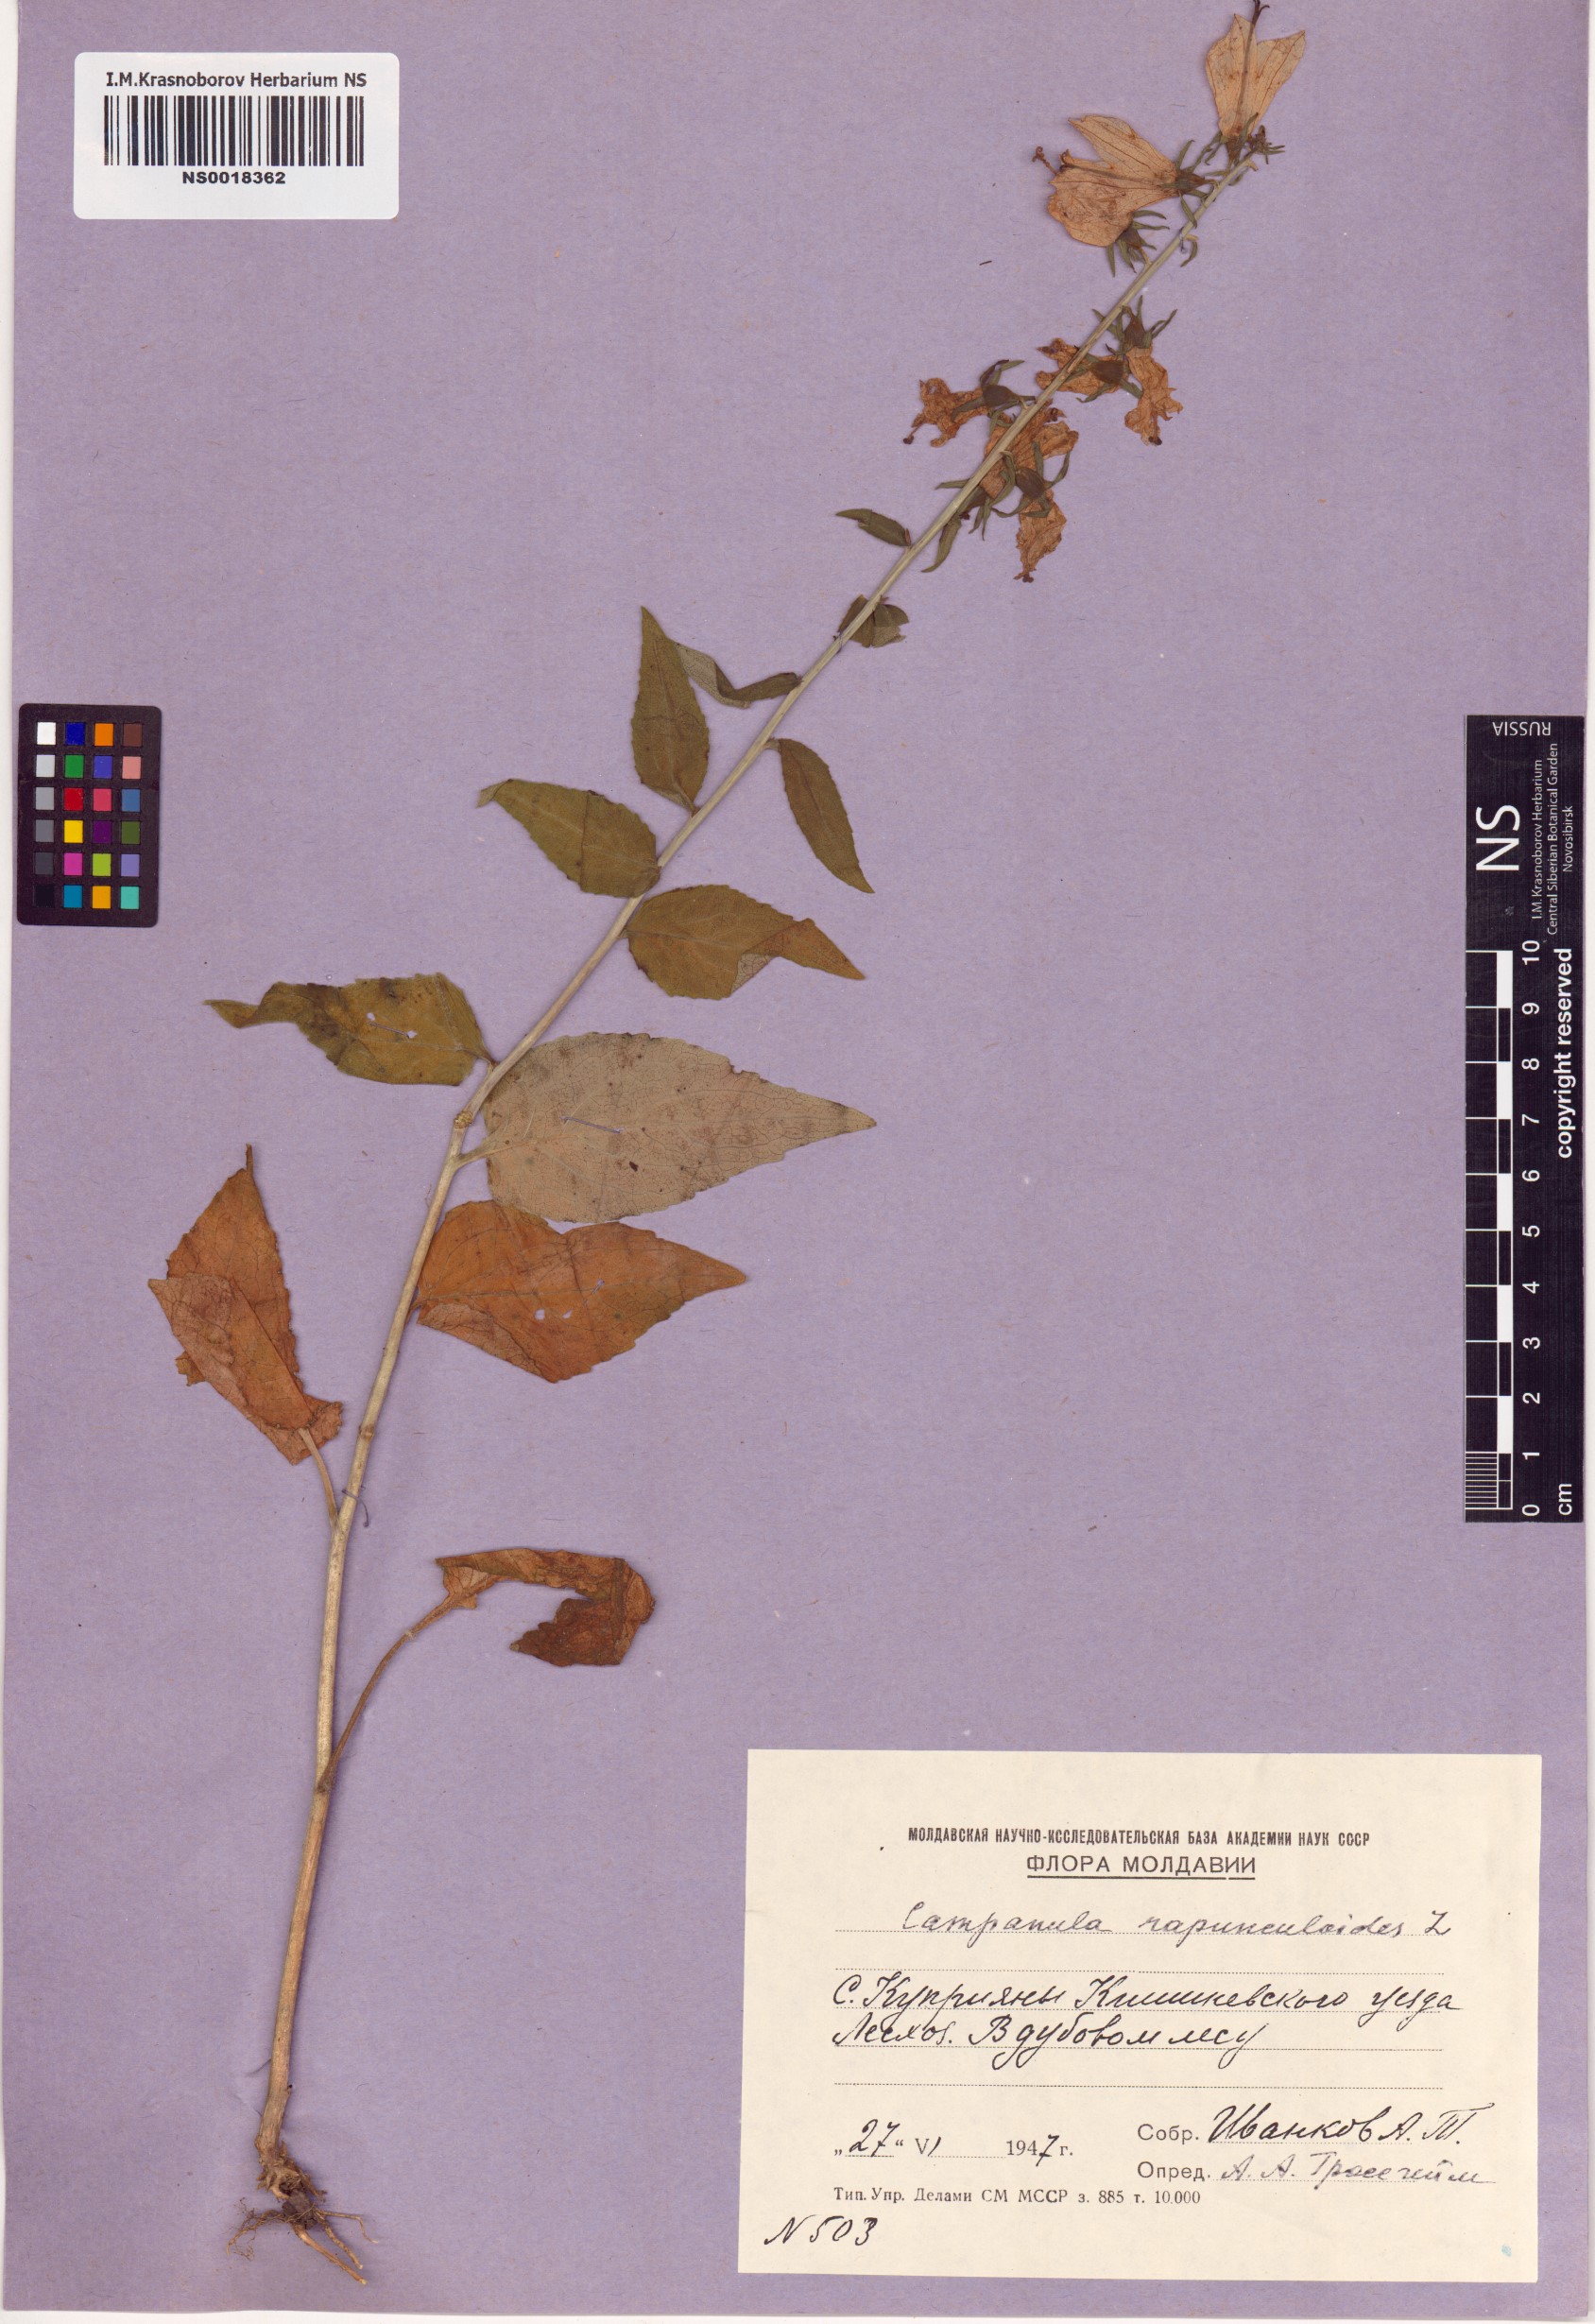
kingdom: Plantae
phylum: Tracheophyta
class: Magnoliopsida
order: Asterales
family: Campanulaceae
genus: Campanula
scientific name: Campanula rapunculoides
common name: Creeping bellflower
